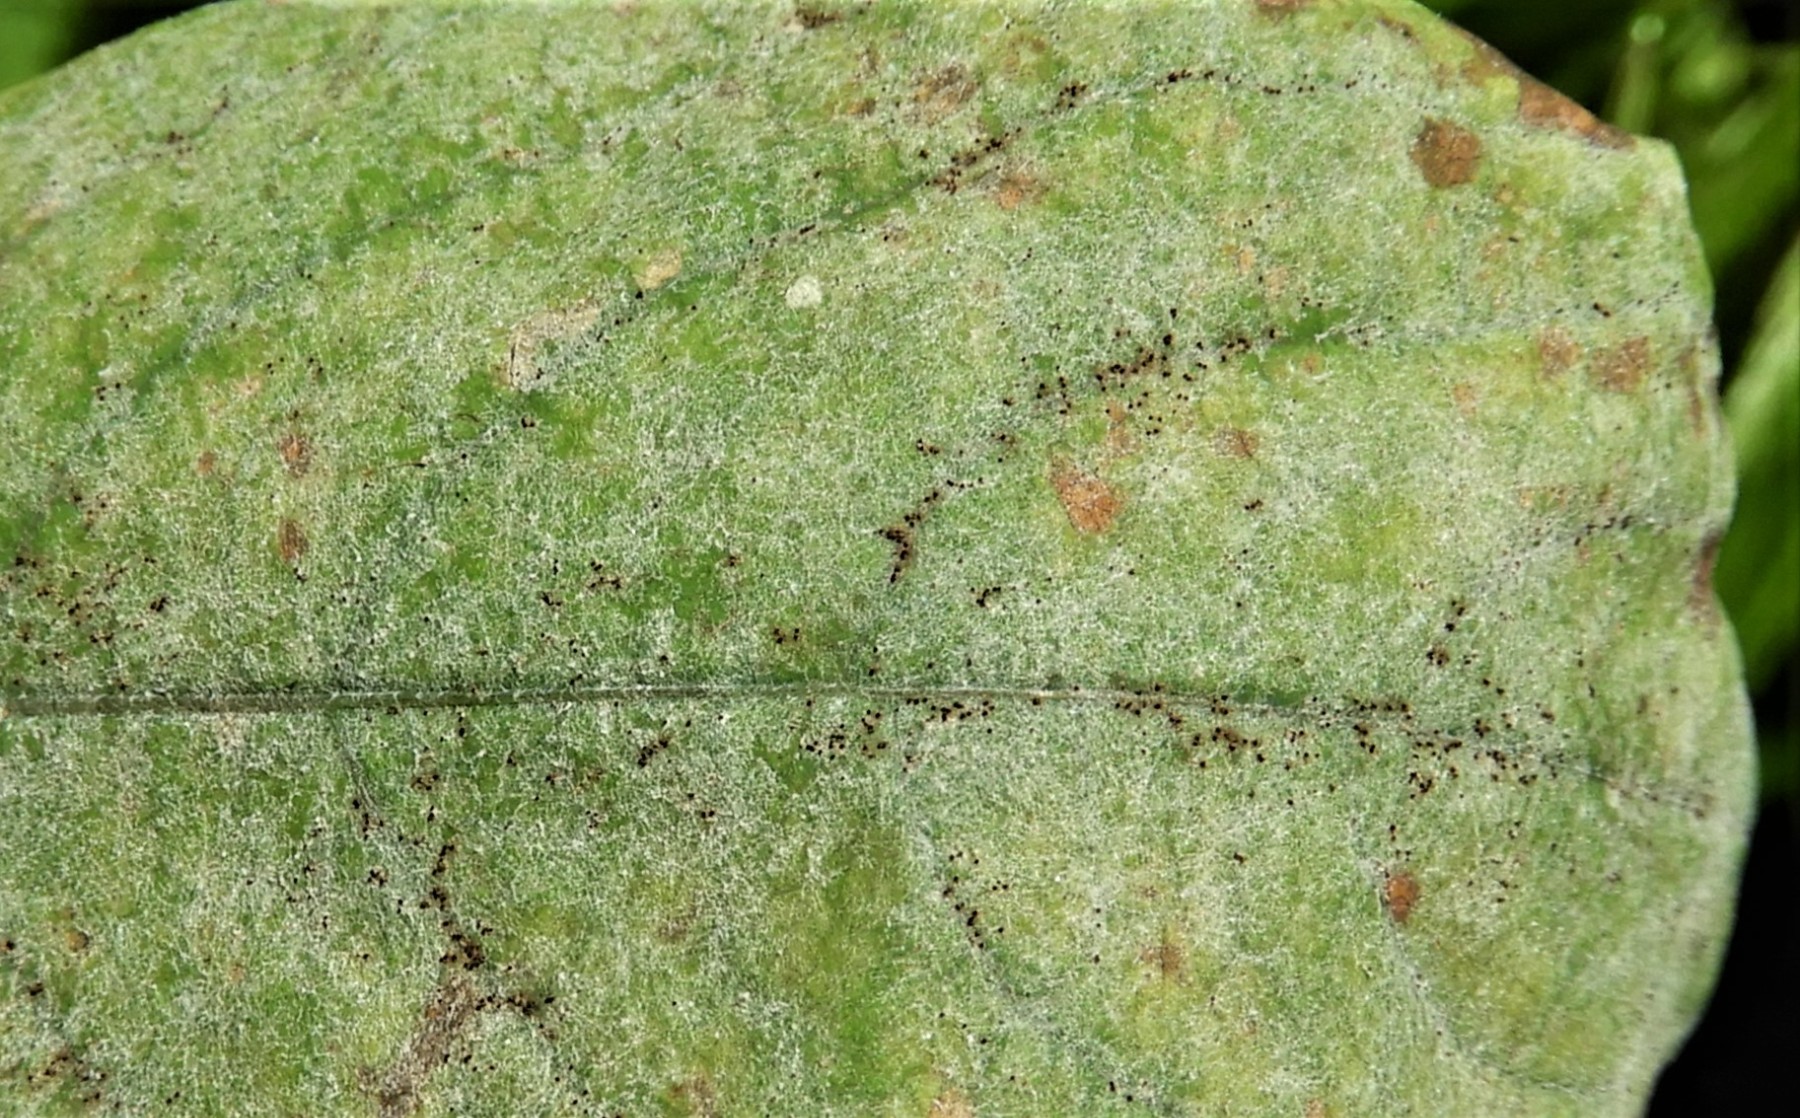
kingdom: Fungi
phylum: Ascomycota
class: Leotiomycetes
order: Helotiales
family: Erysiphaceae
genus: Podosphaera
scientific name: Podosphaera fusca
